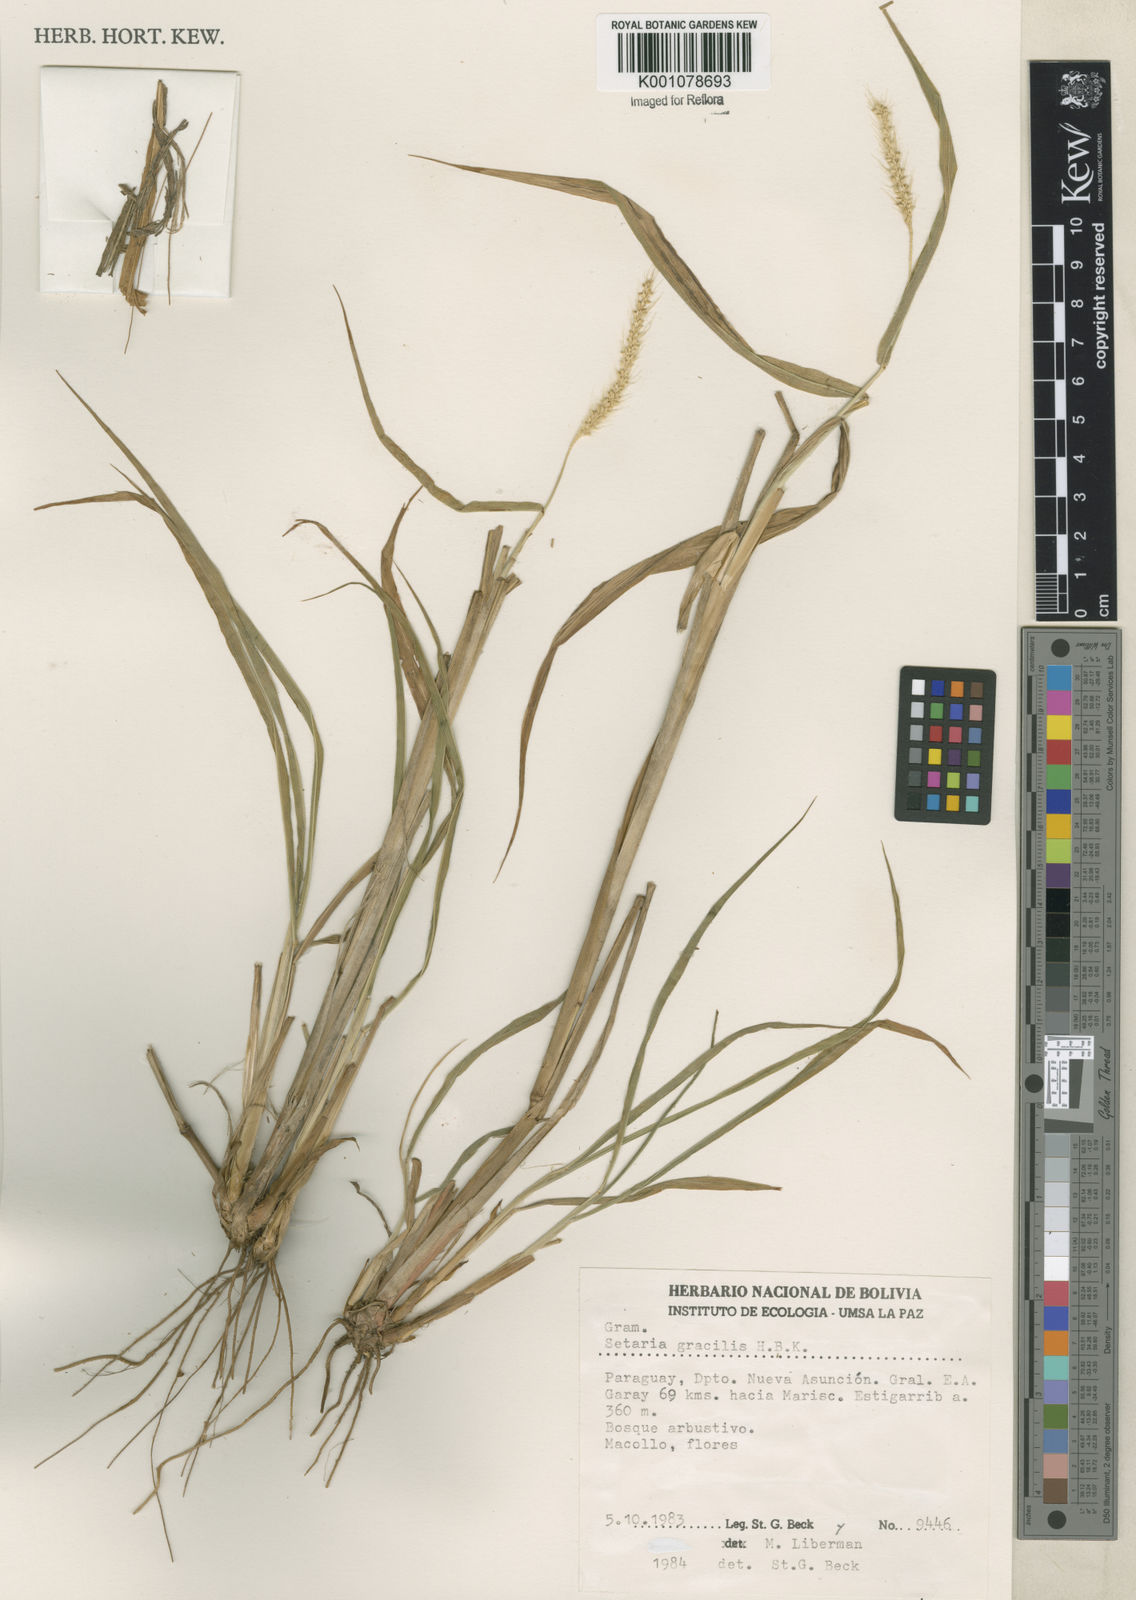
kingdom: Plantae
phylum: Tracheophyta
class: Liliopsida
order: Poales
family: Poaceae
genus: Setaria
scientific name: Setaria
